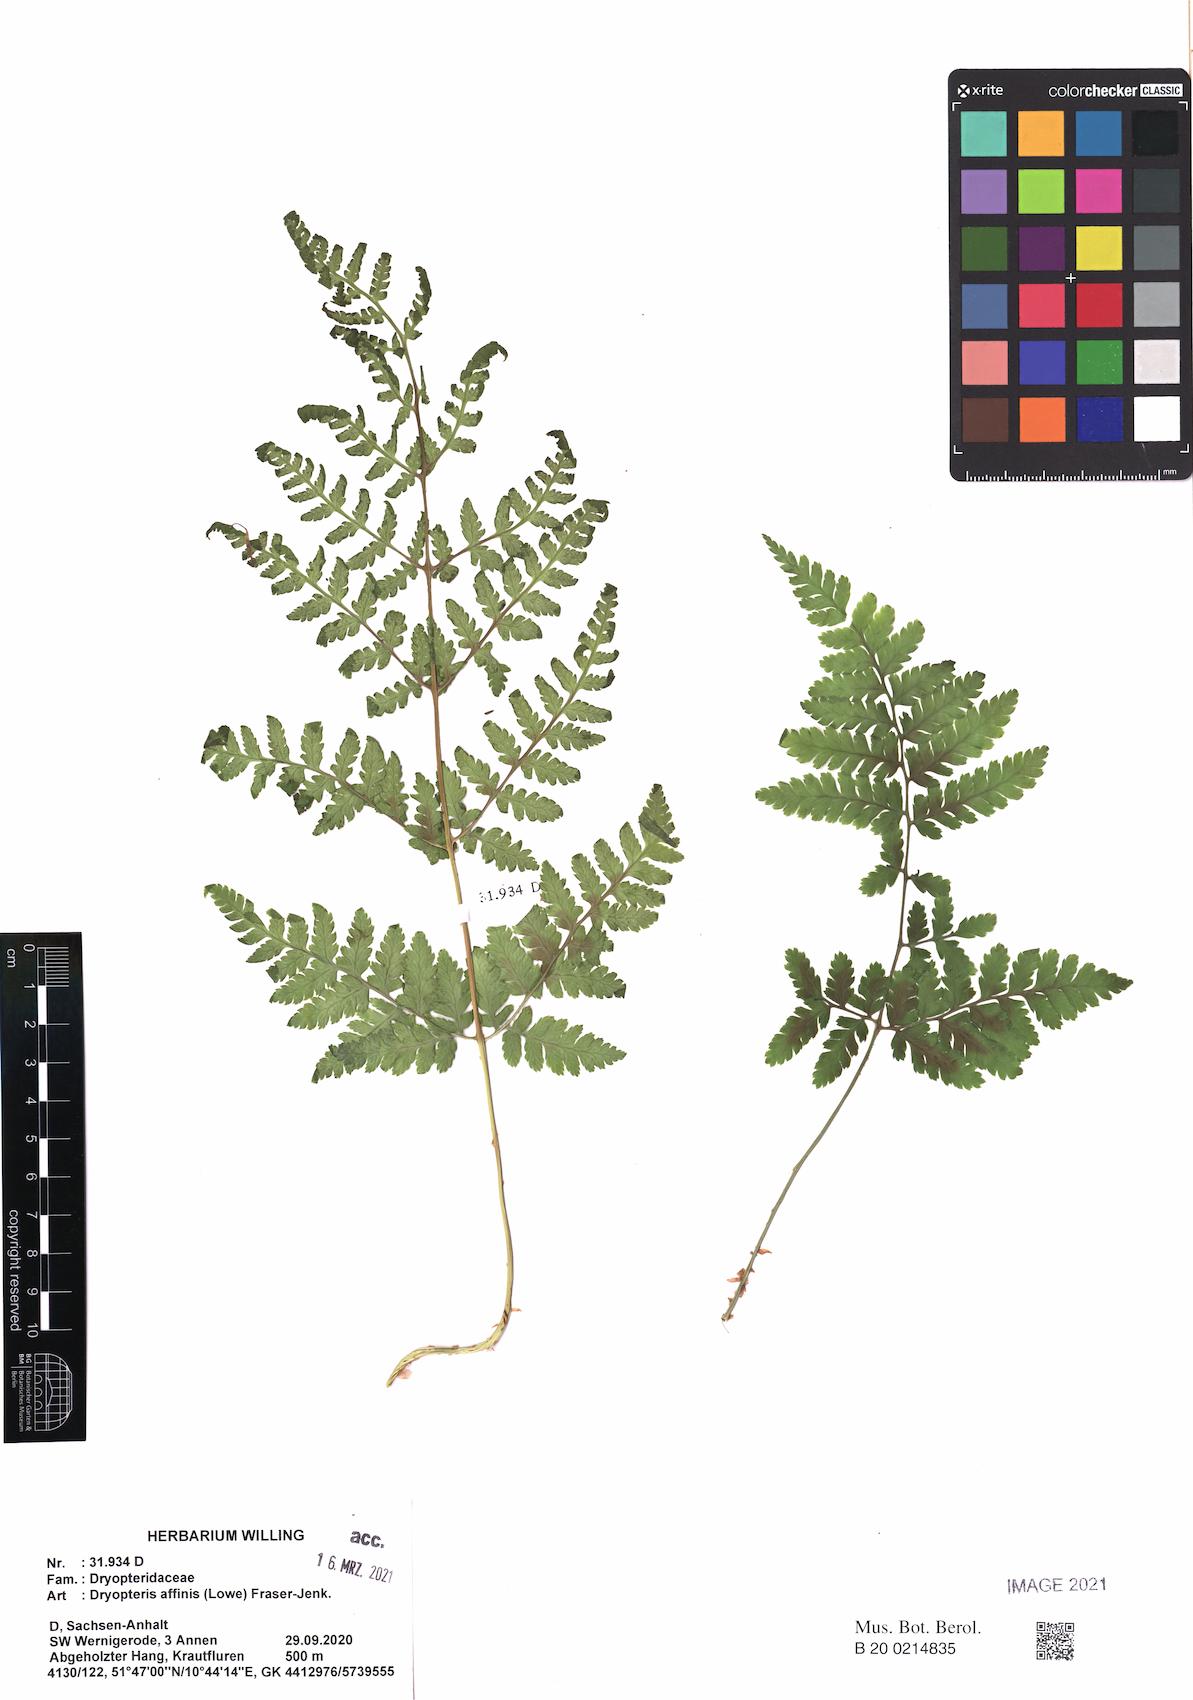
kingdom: Plantae
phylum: Tracheophyta
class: Polypodiopsida
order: Polypodiales
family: Dryopteridaceae
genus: Dryopteris
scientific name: Dryopteris carthusiana
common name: Narrow buckler-fern
